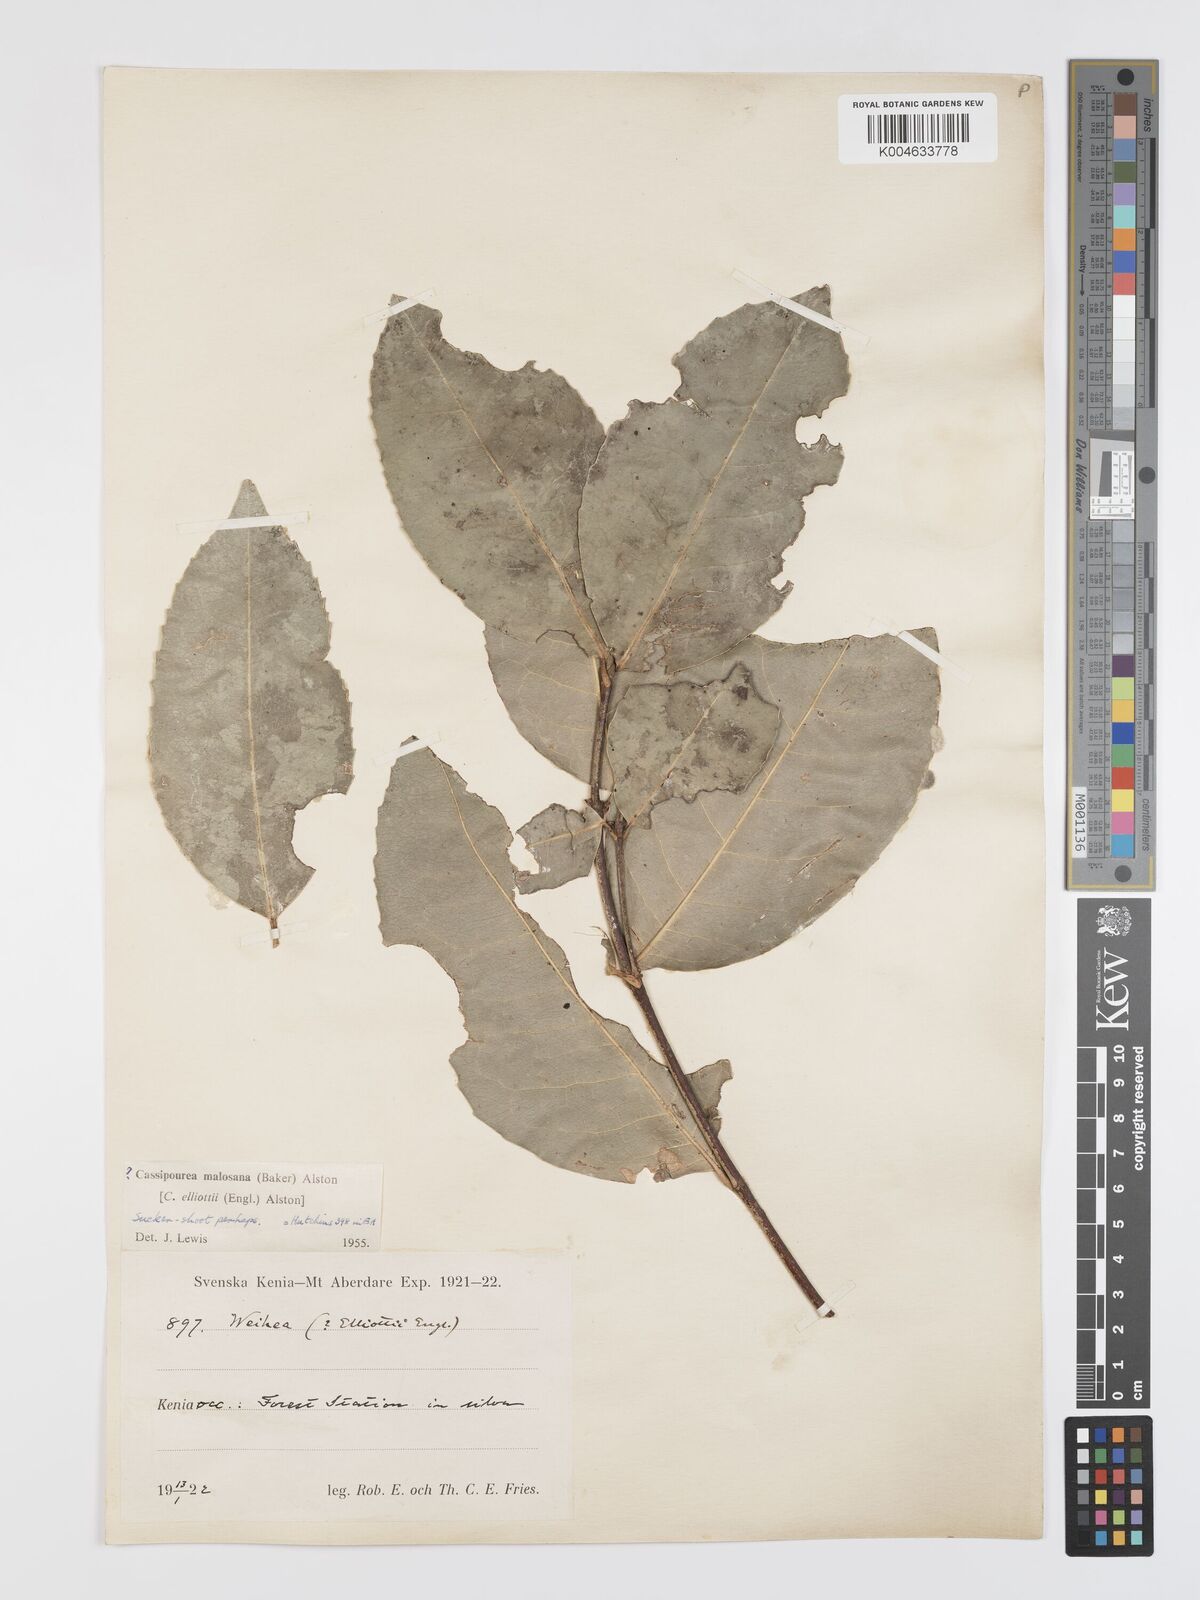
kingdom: Plantae
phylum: Tracheophyta
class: Magnoliopsida
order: Malpighiales
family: Rhizophoraceae
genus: Cassipourea
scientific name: Cassipourea malosana
